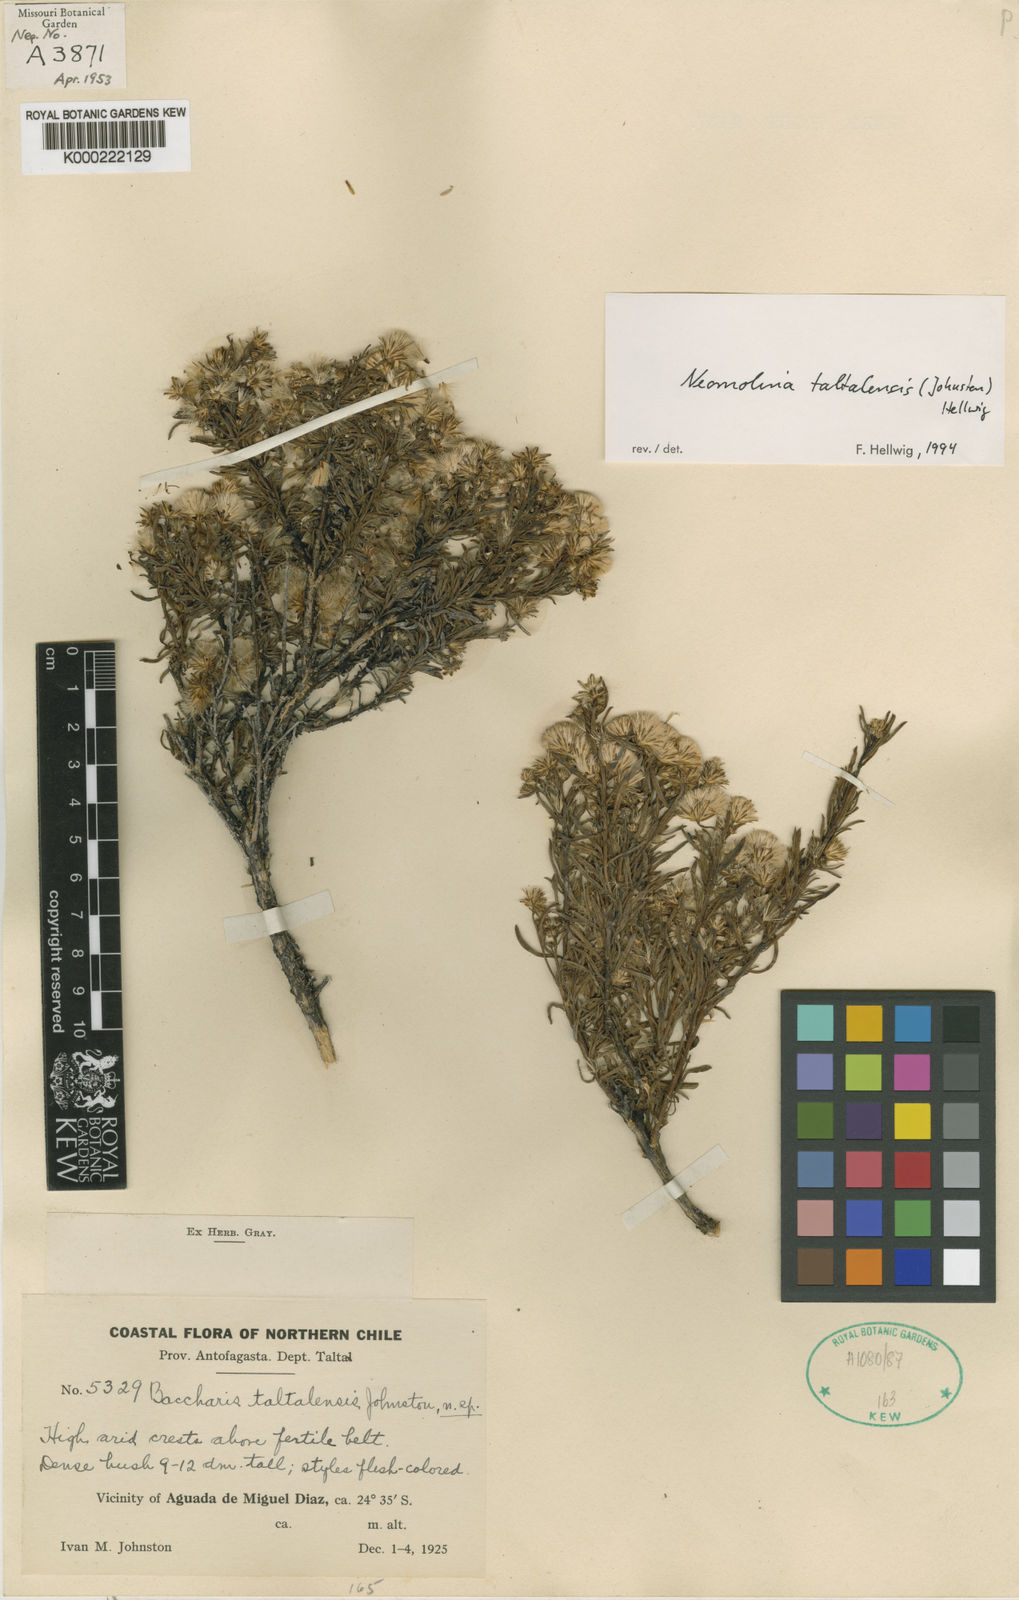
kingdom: Plantae
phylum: Tracheophyta
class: Magnoliopsida
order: Asterales
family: Asteraceae
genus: Baccharis
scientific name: Baccharis taltalensis
